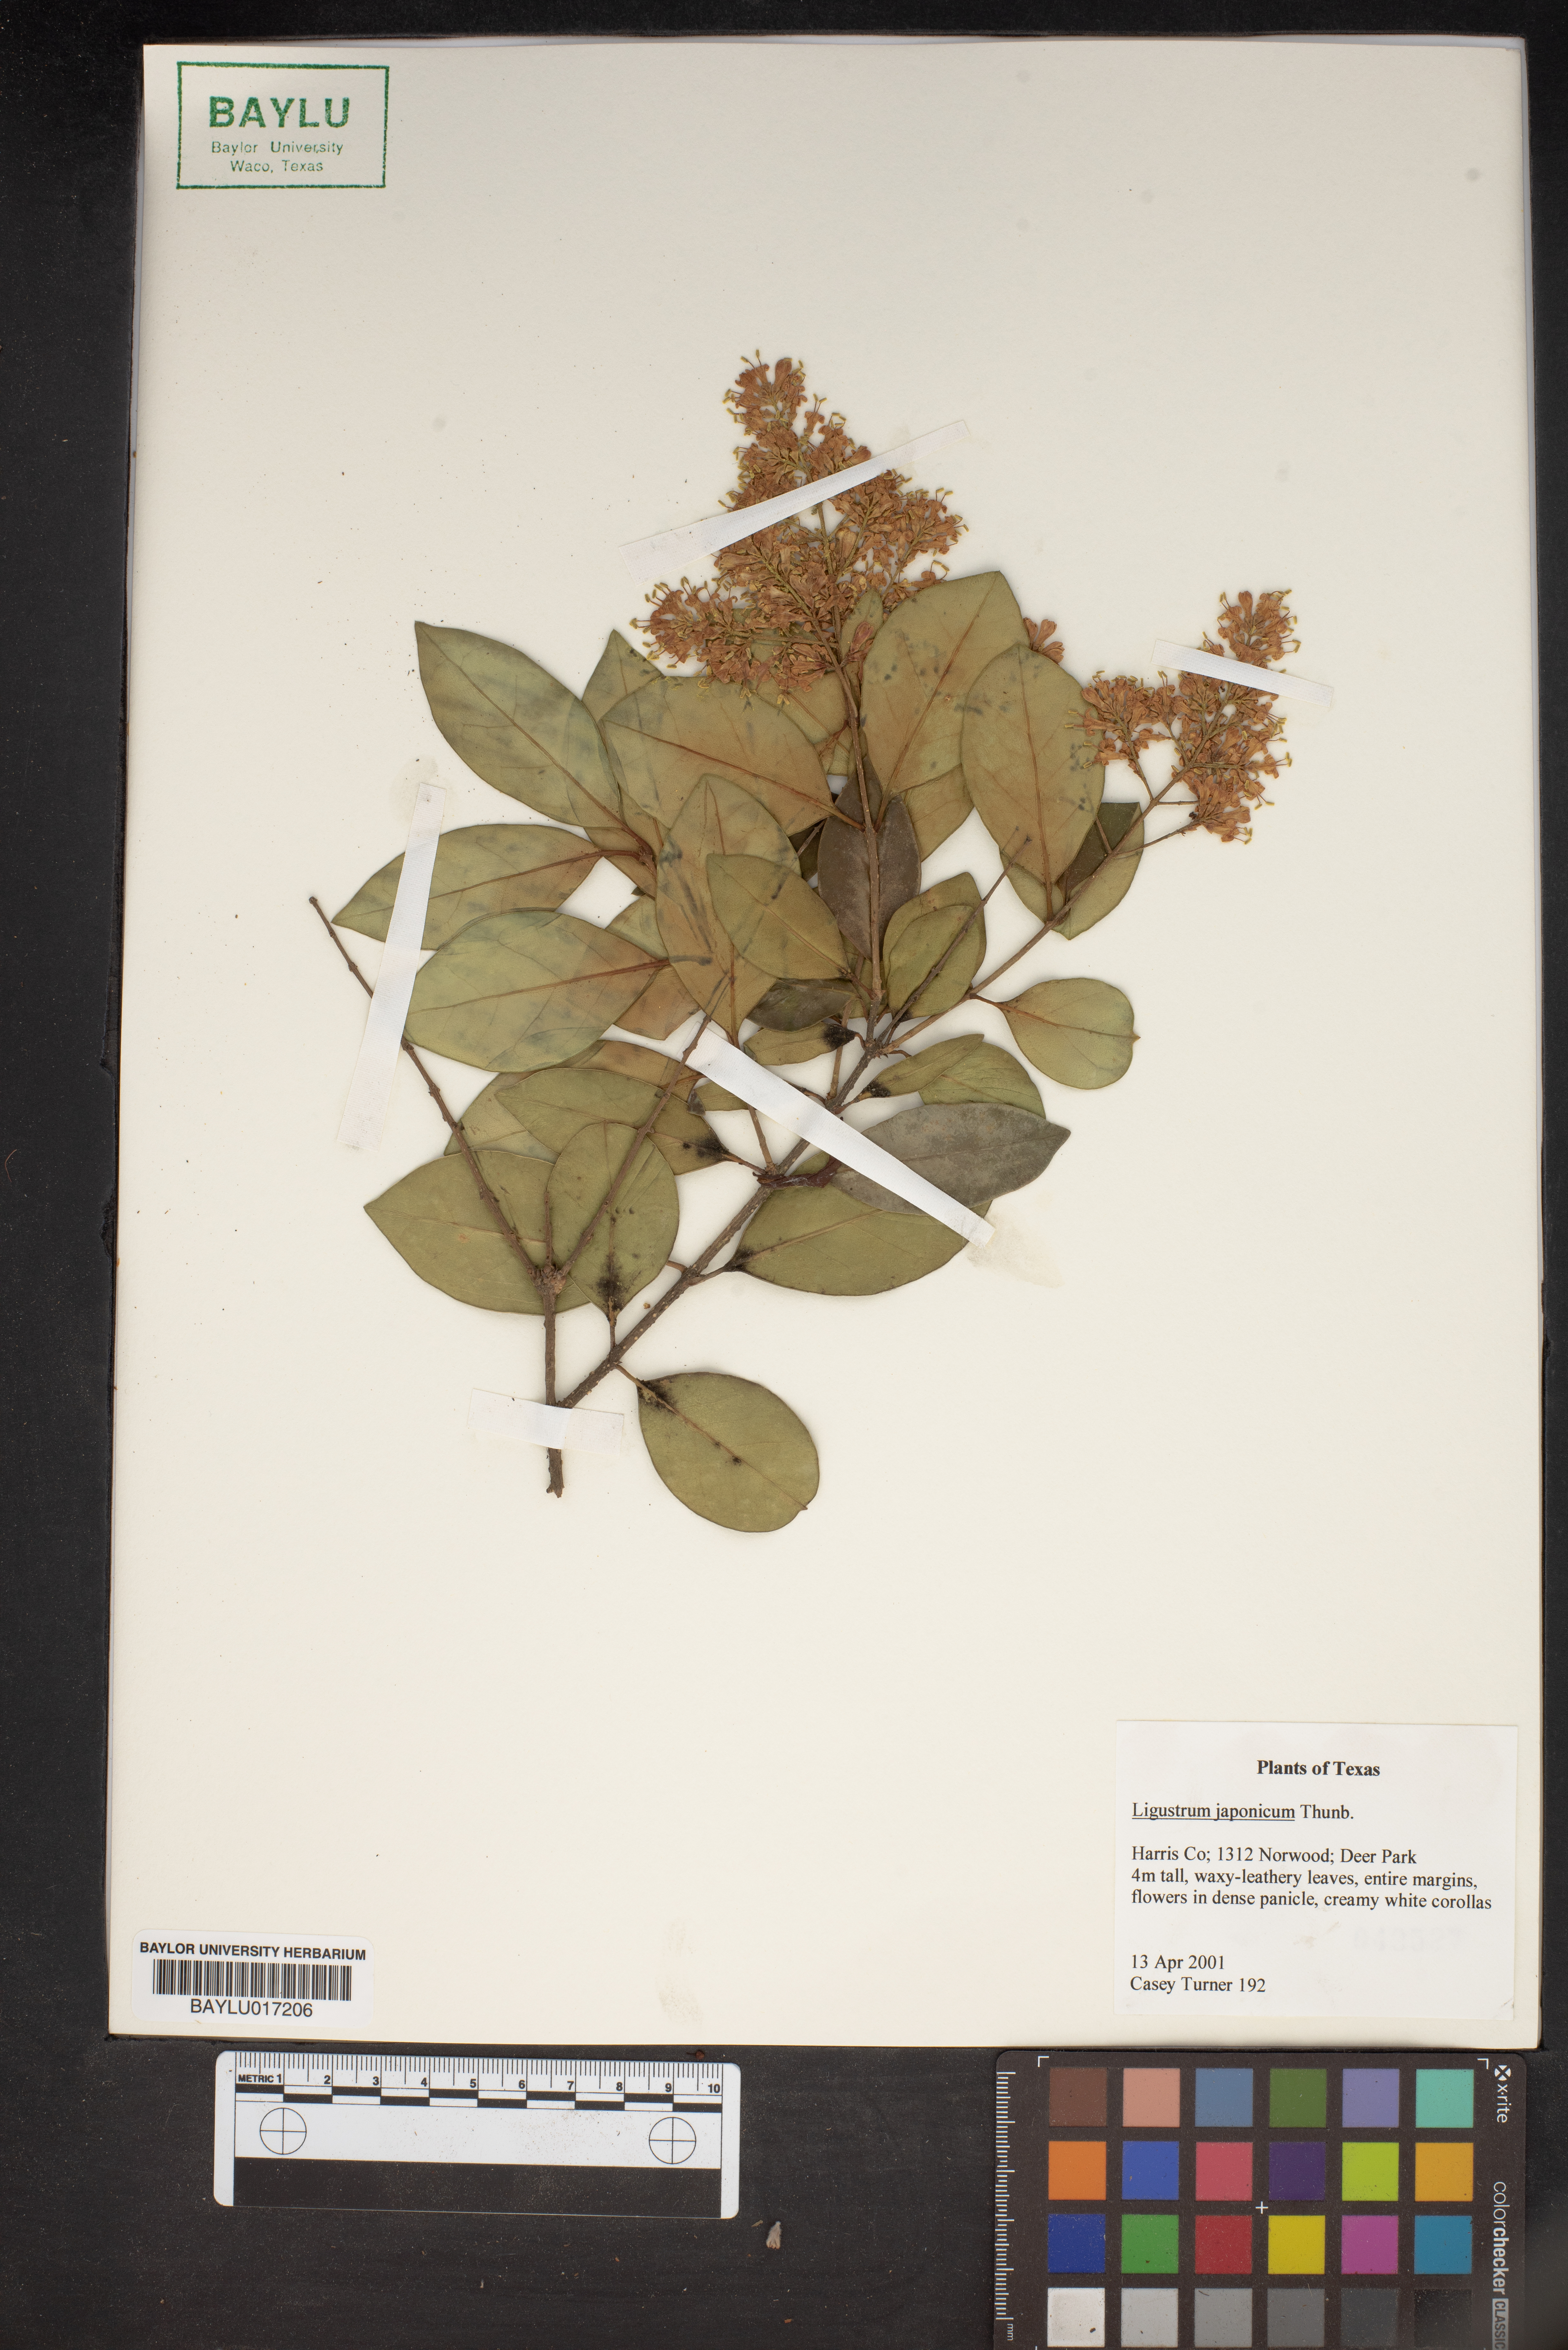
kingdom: Plantae
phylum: Tracheophyta
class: Magnoliopsida
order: Lamiales
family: Oleaceae
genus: Ligustrum
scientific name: Ligustrum japonicum
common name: Japanese privet
